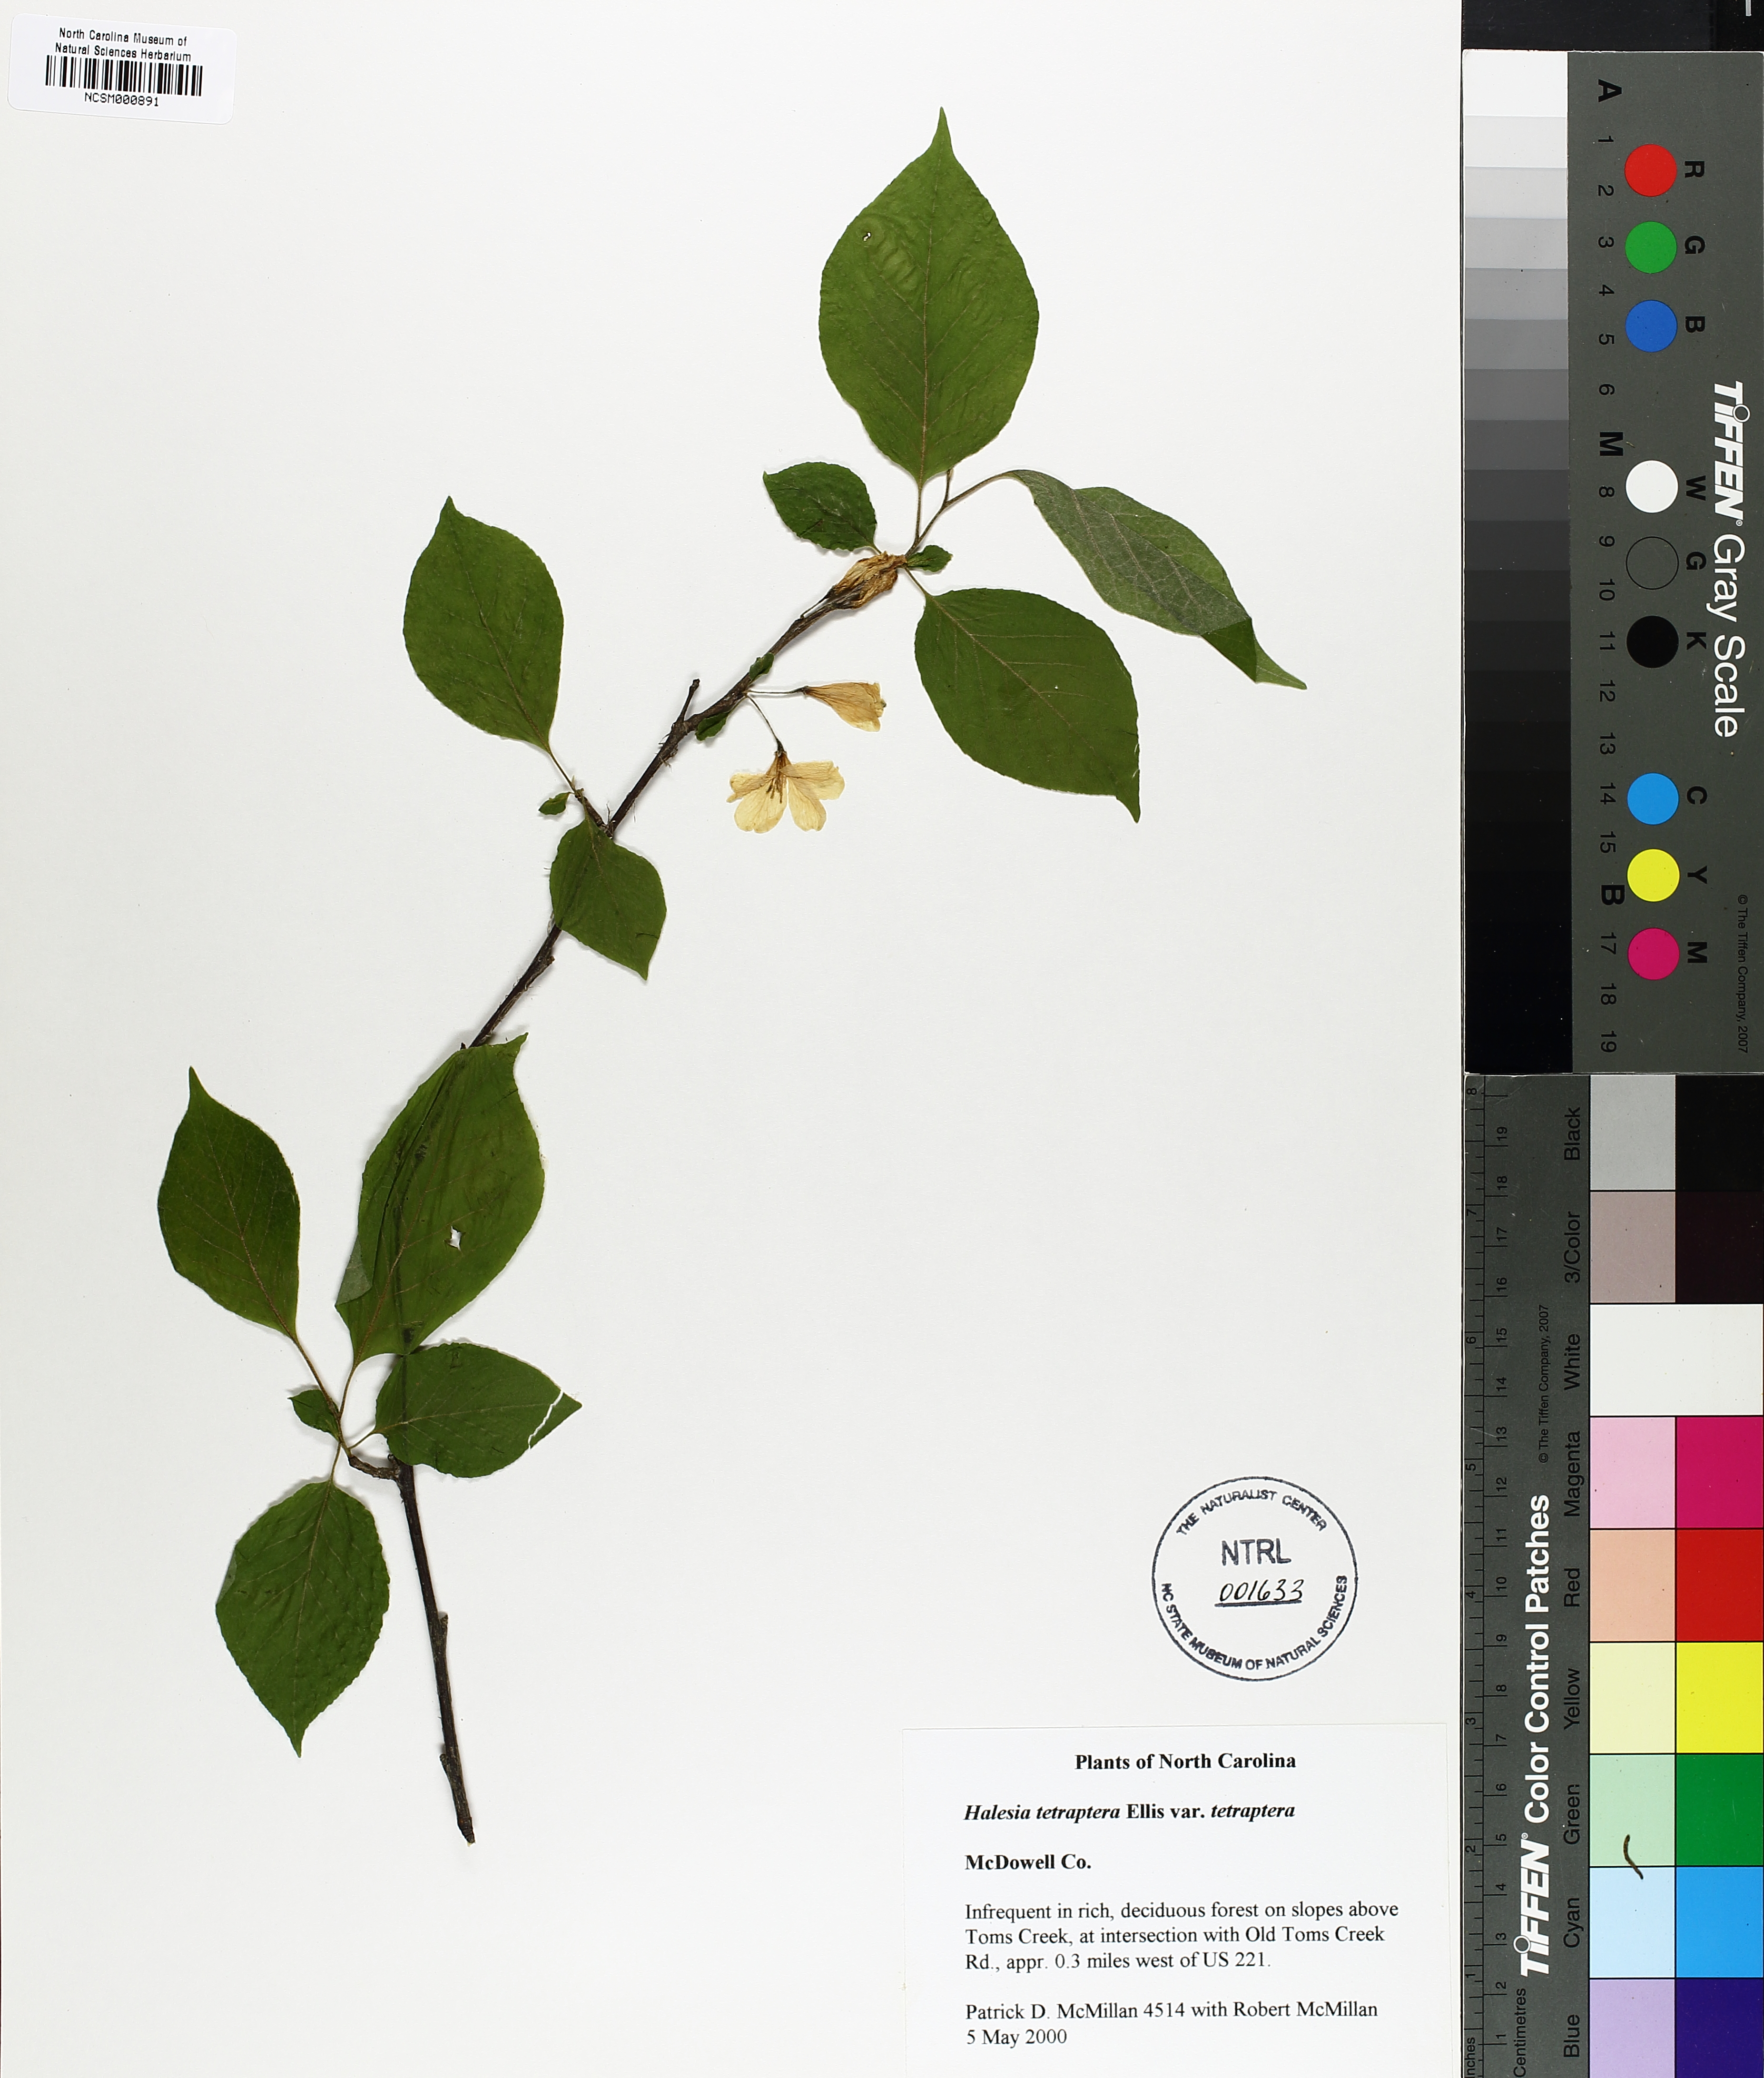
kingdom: Plantae
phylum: Tracheophyta
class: Magnoliopsida
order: Ericales
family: Styracaceae
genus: Halesia
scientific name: Halesia carolina
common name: Carolina silverbell
